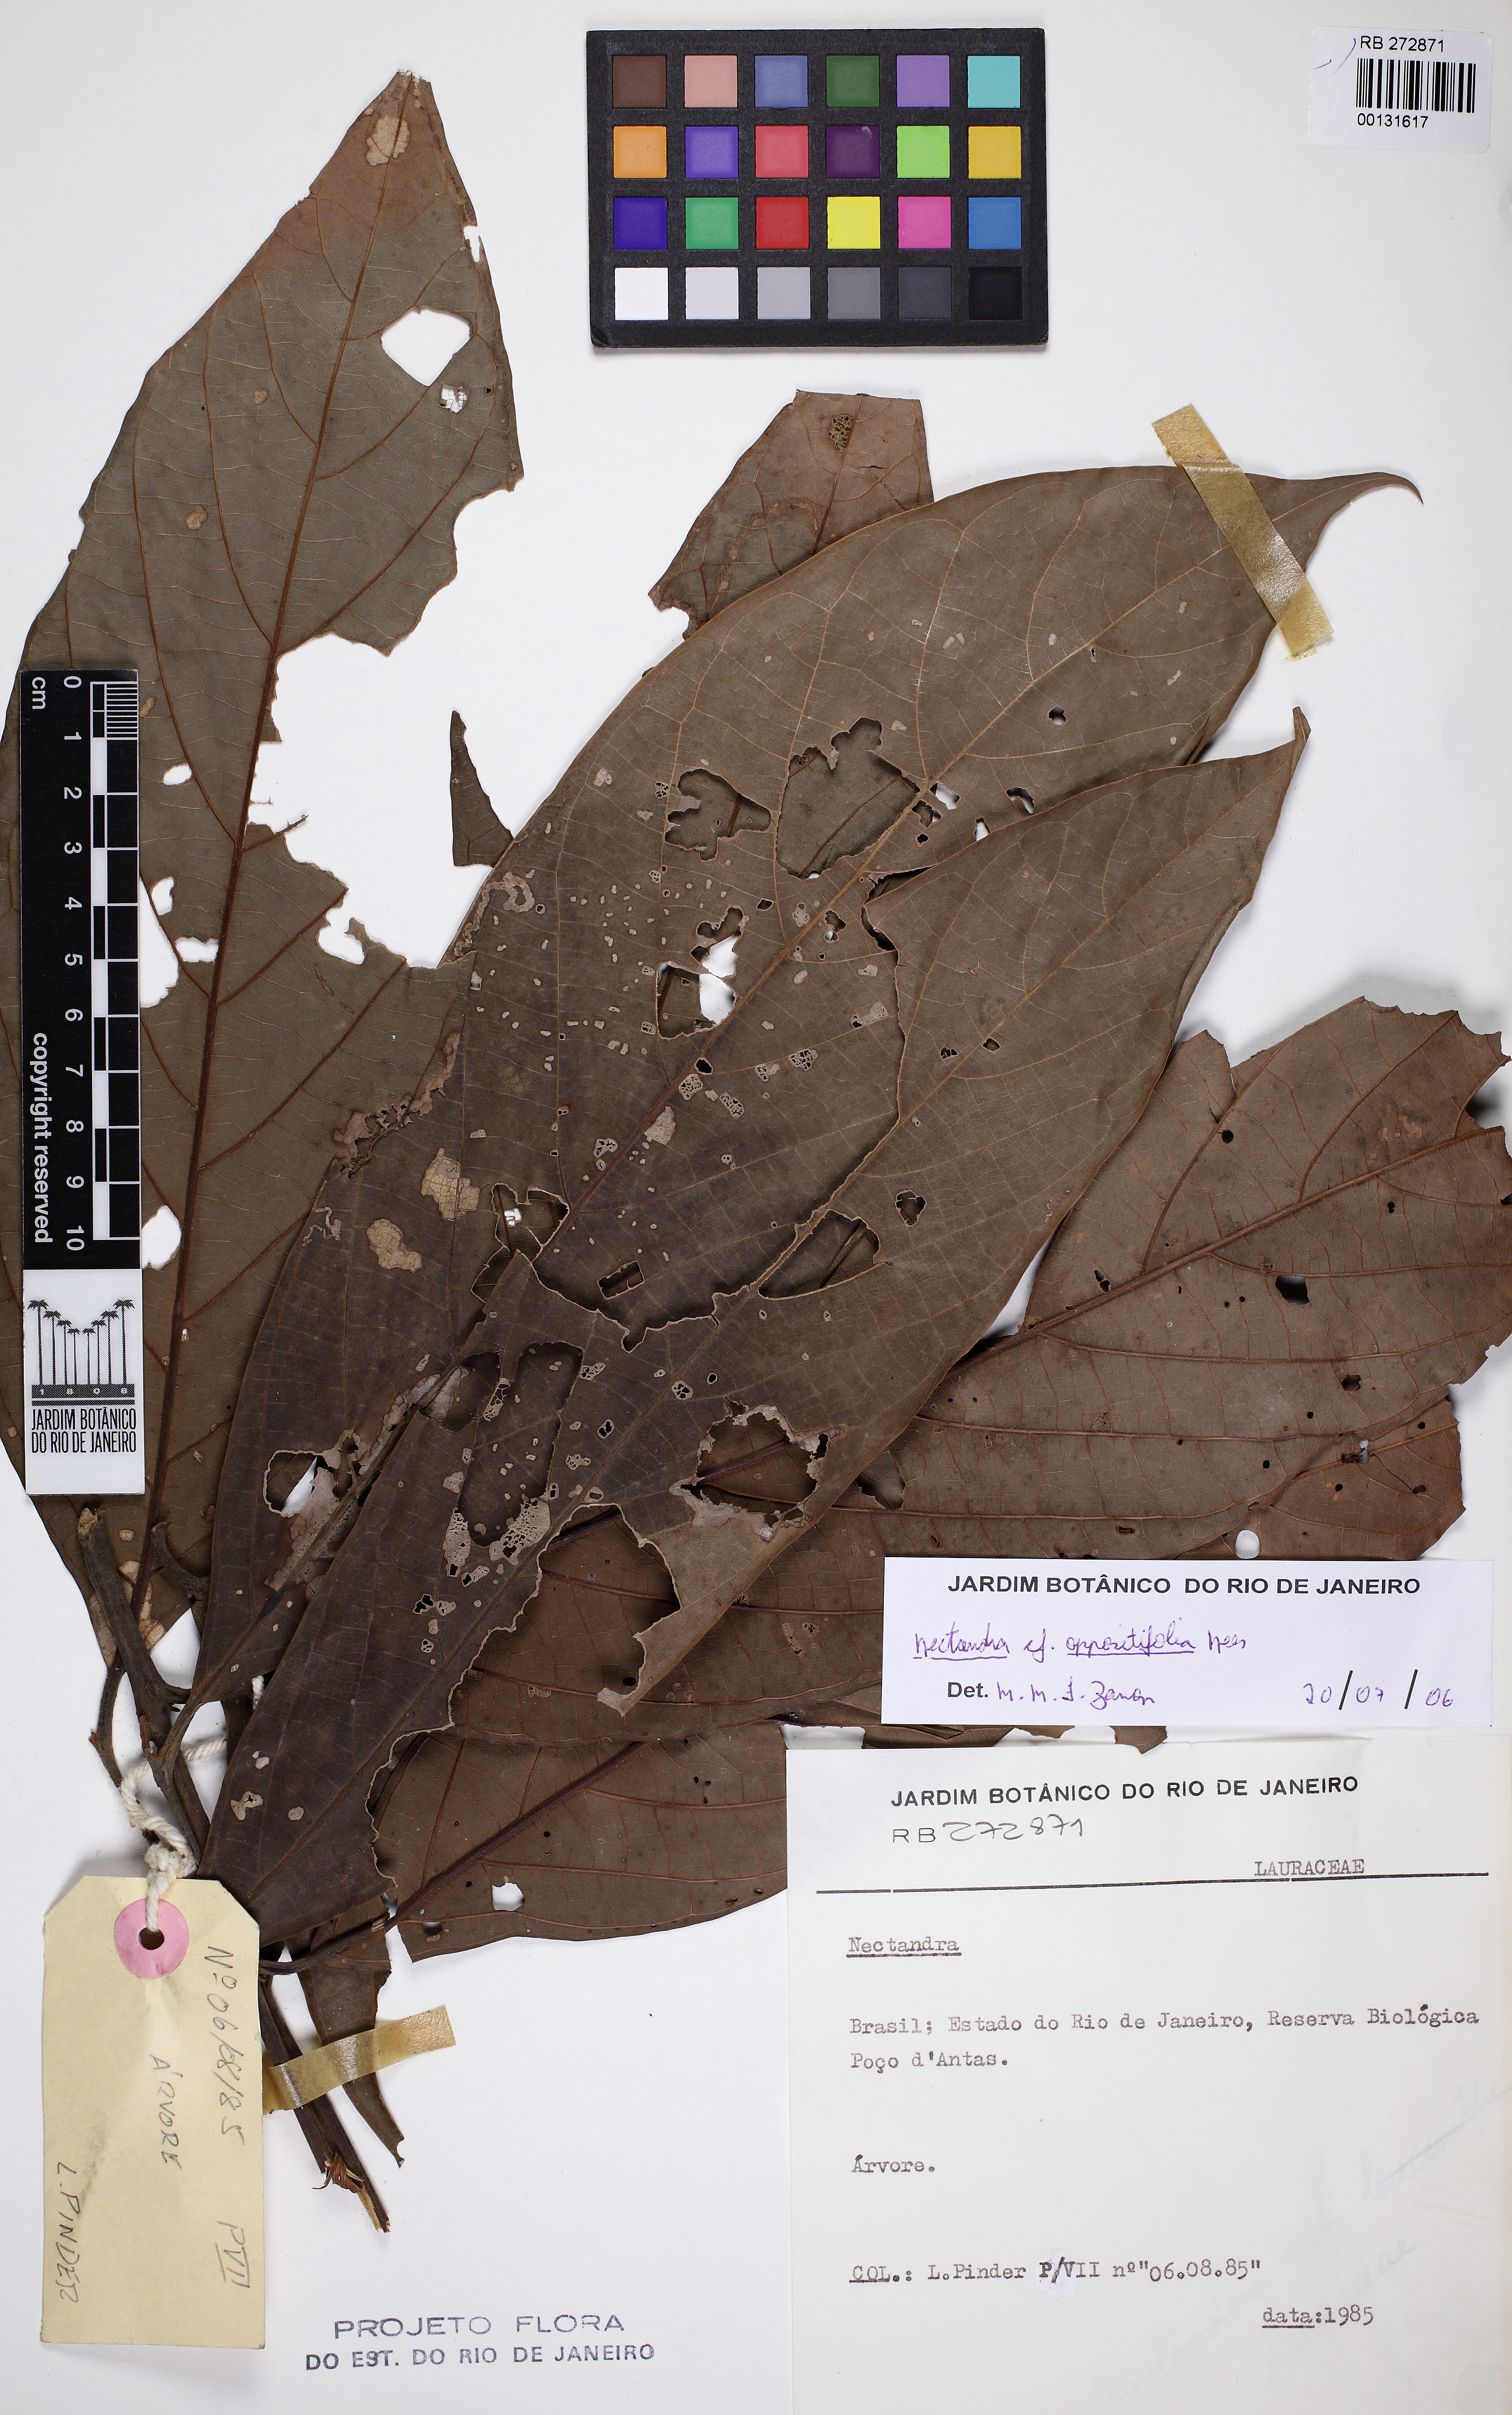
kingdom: Plantae
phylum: Tracheophyta
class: Magnoliopsida
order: Laurales
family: Lauraceae
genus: Nectandra
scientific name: Nectandra oppositifolia
